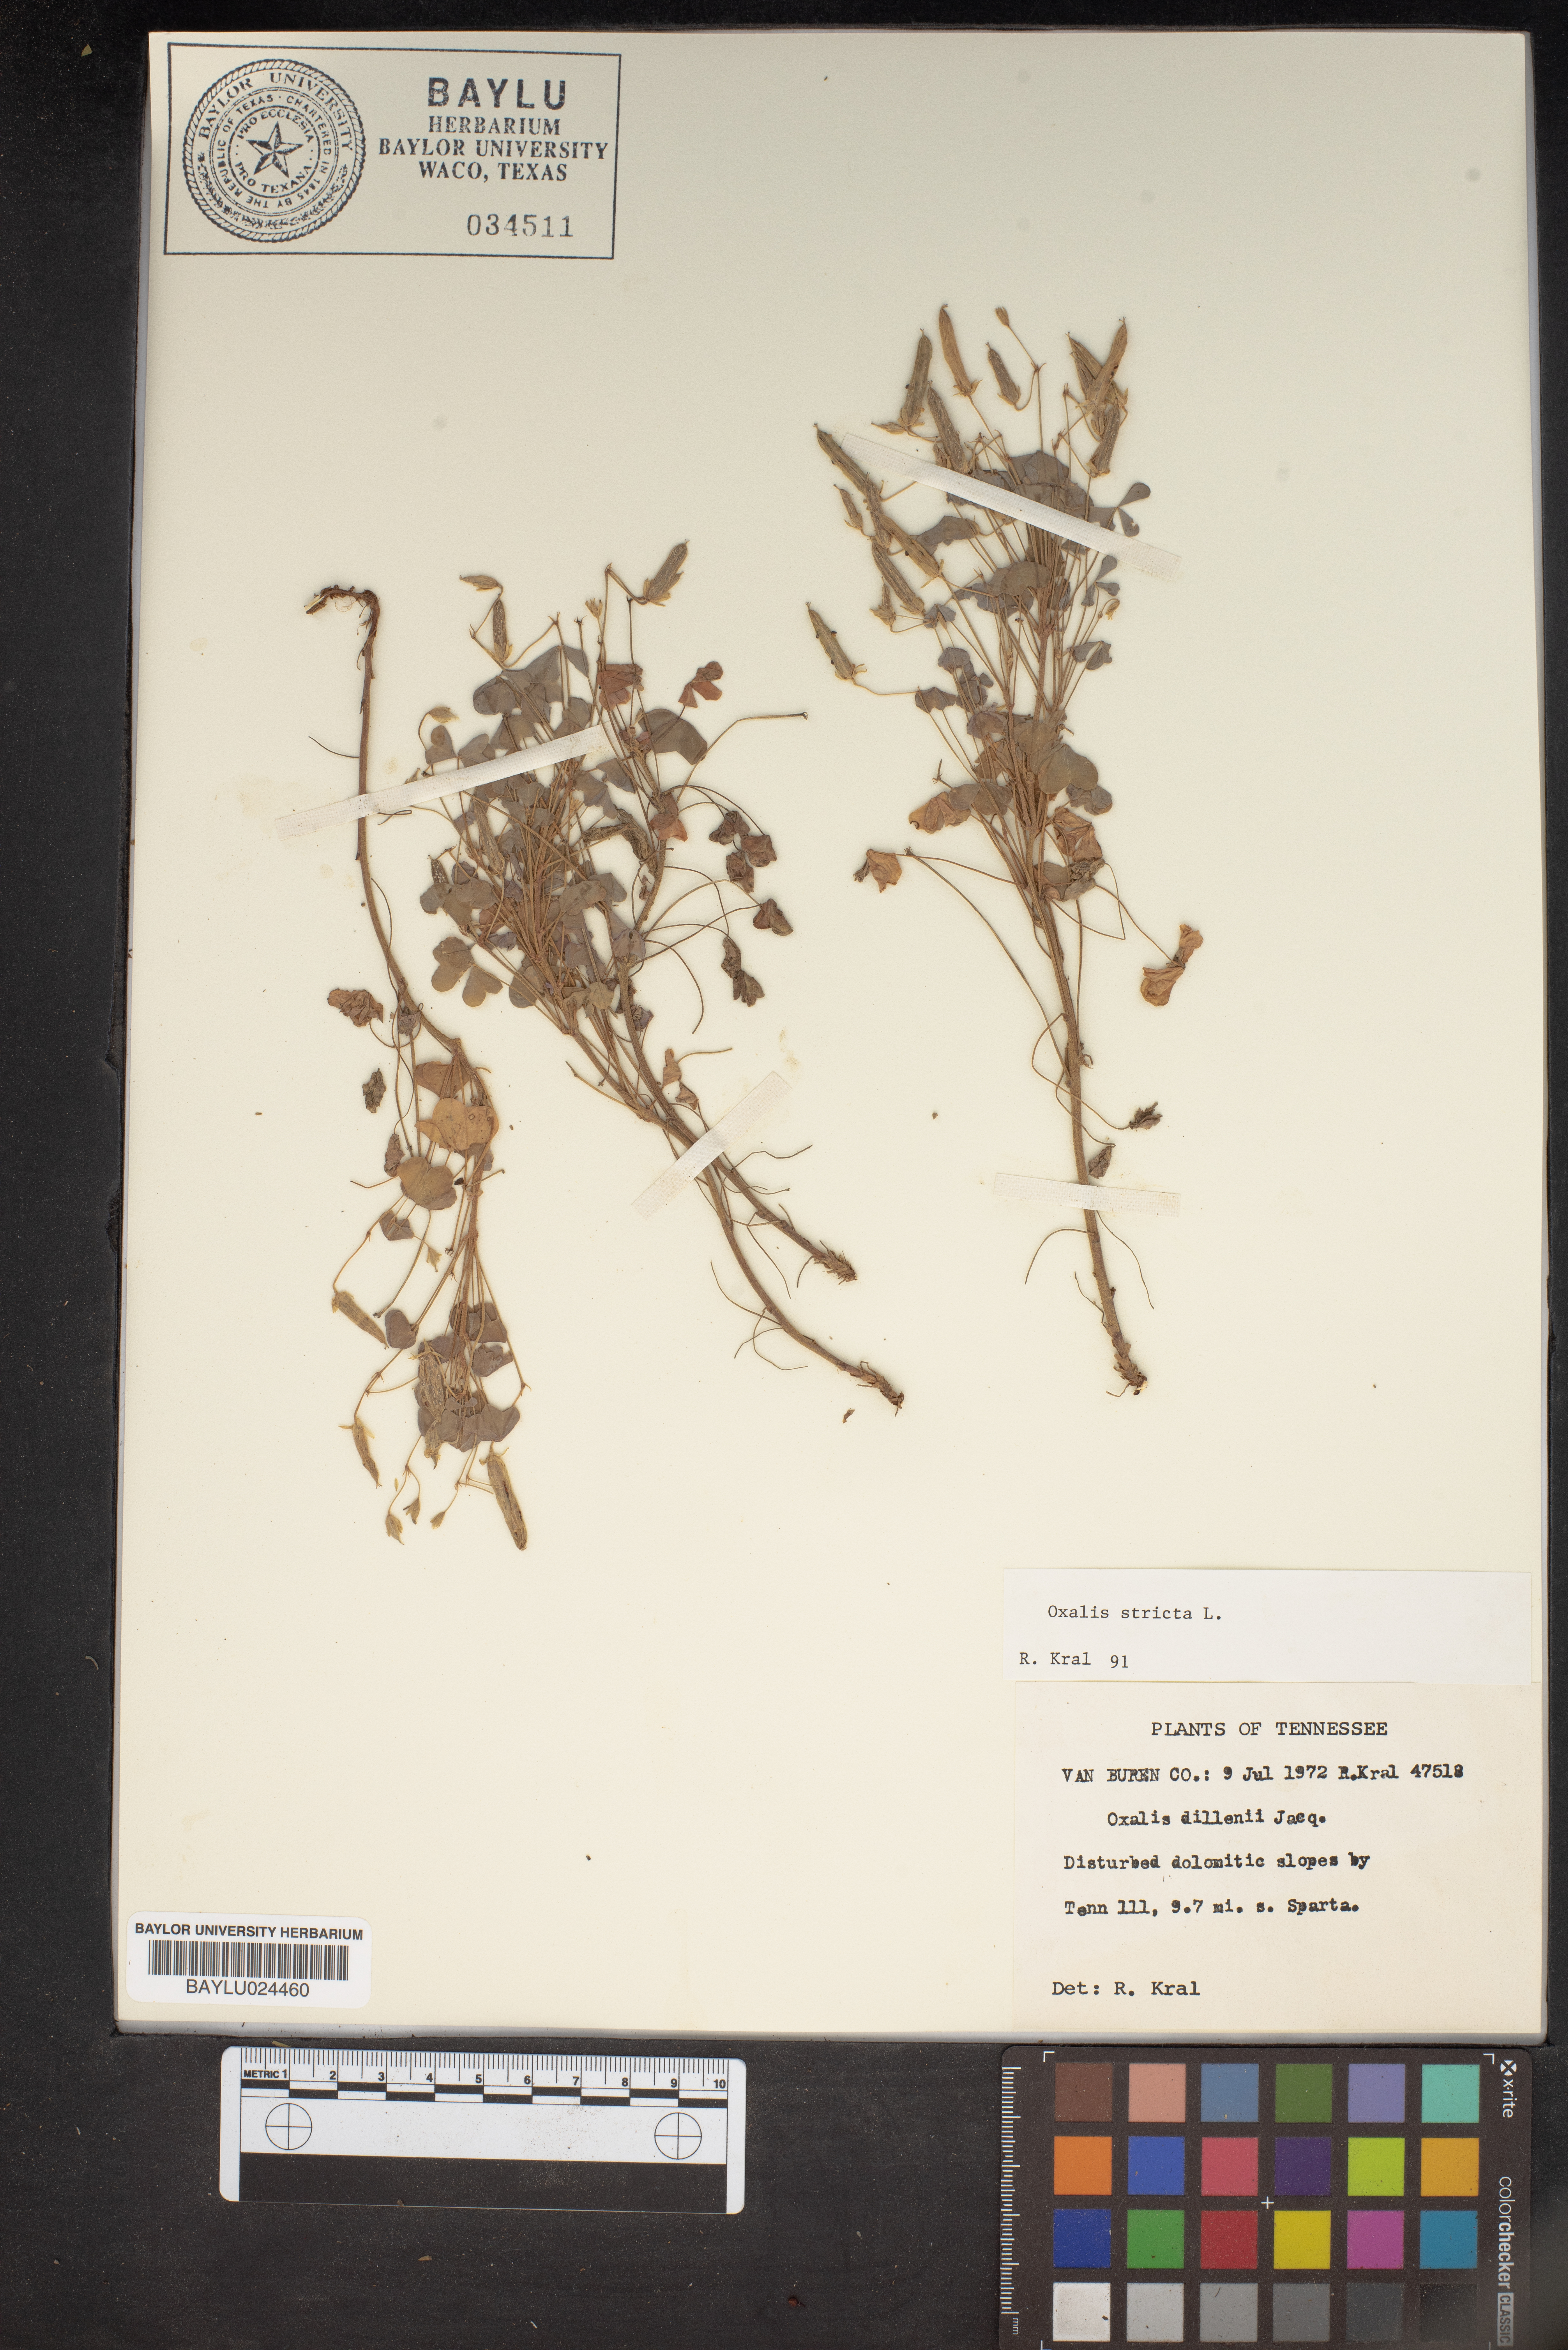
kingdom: Plantae
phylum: Tracheophyta
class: Magnoliopsida
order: Oxalidales
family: Oxalidaceae
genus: Oxalis
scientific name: Oxalis stricta
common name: Upright yellow-sorrel
